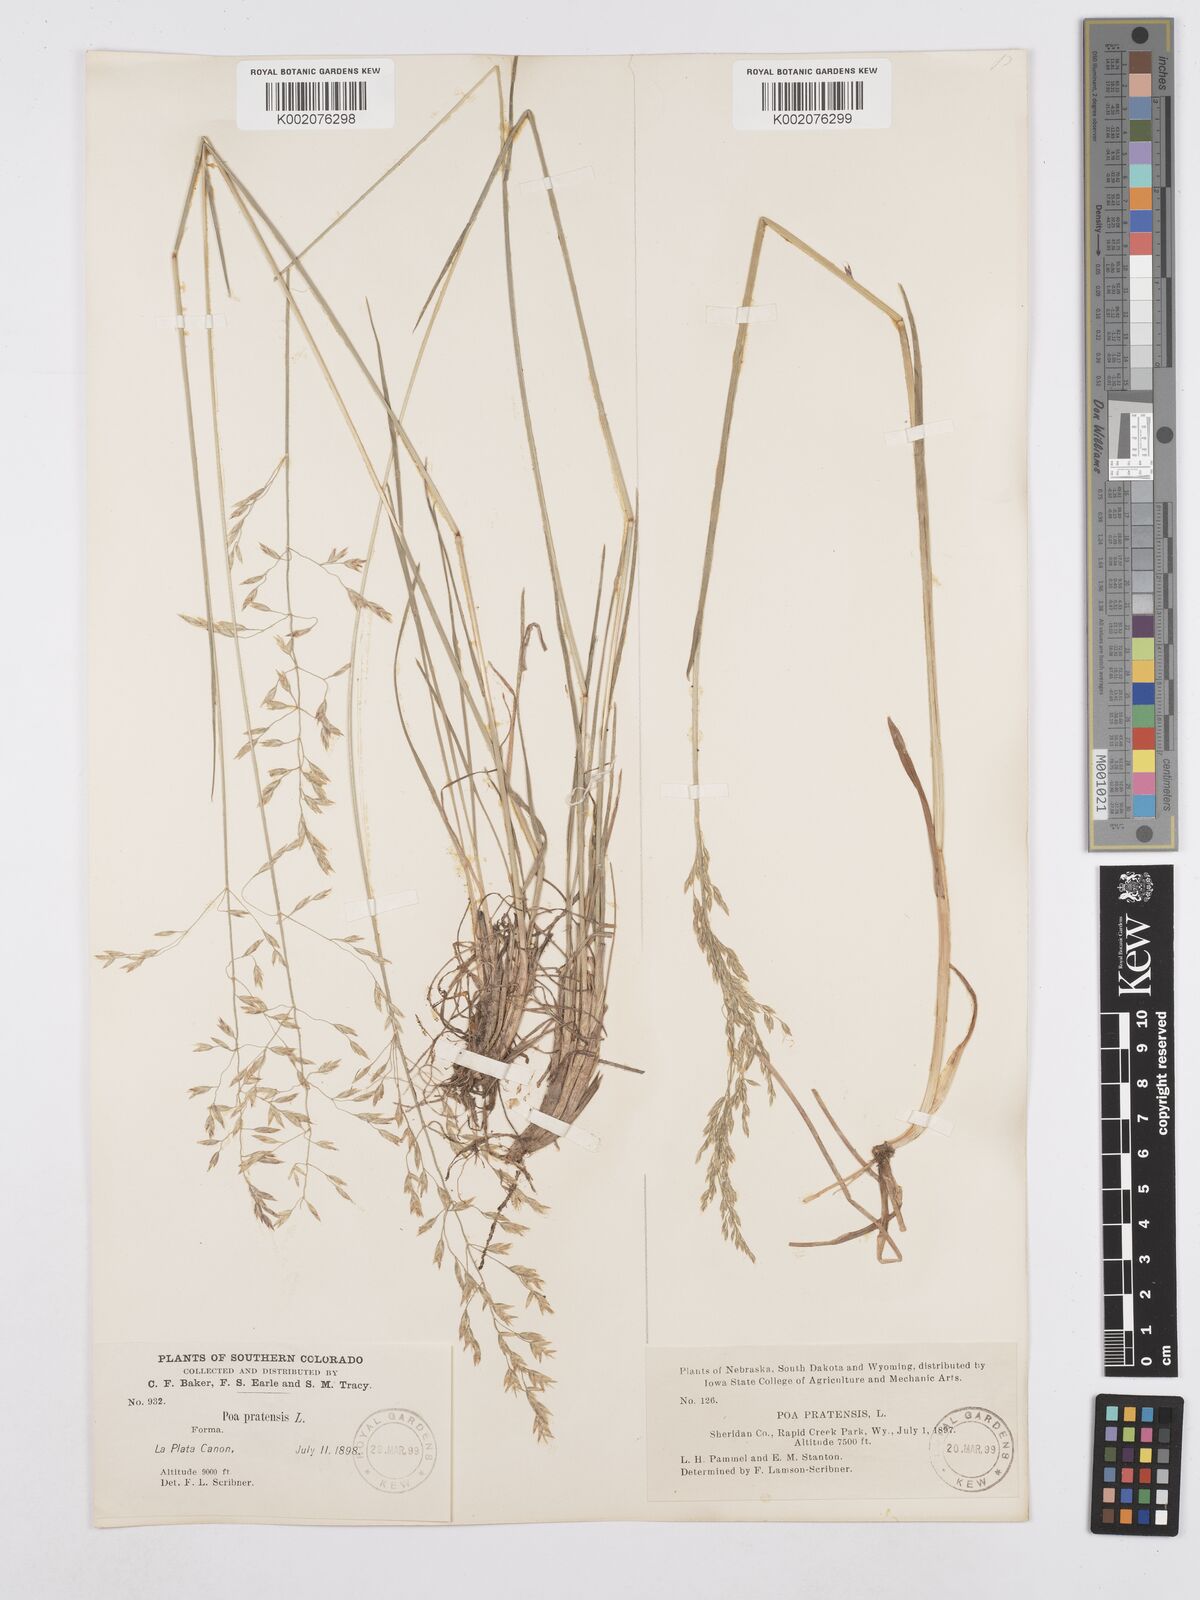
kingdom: Plantae
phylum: Tracheophyta
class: Liliopsida
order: Poales
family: Poaceae
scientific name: Poaceae
